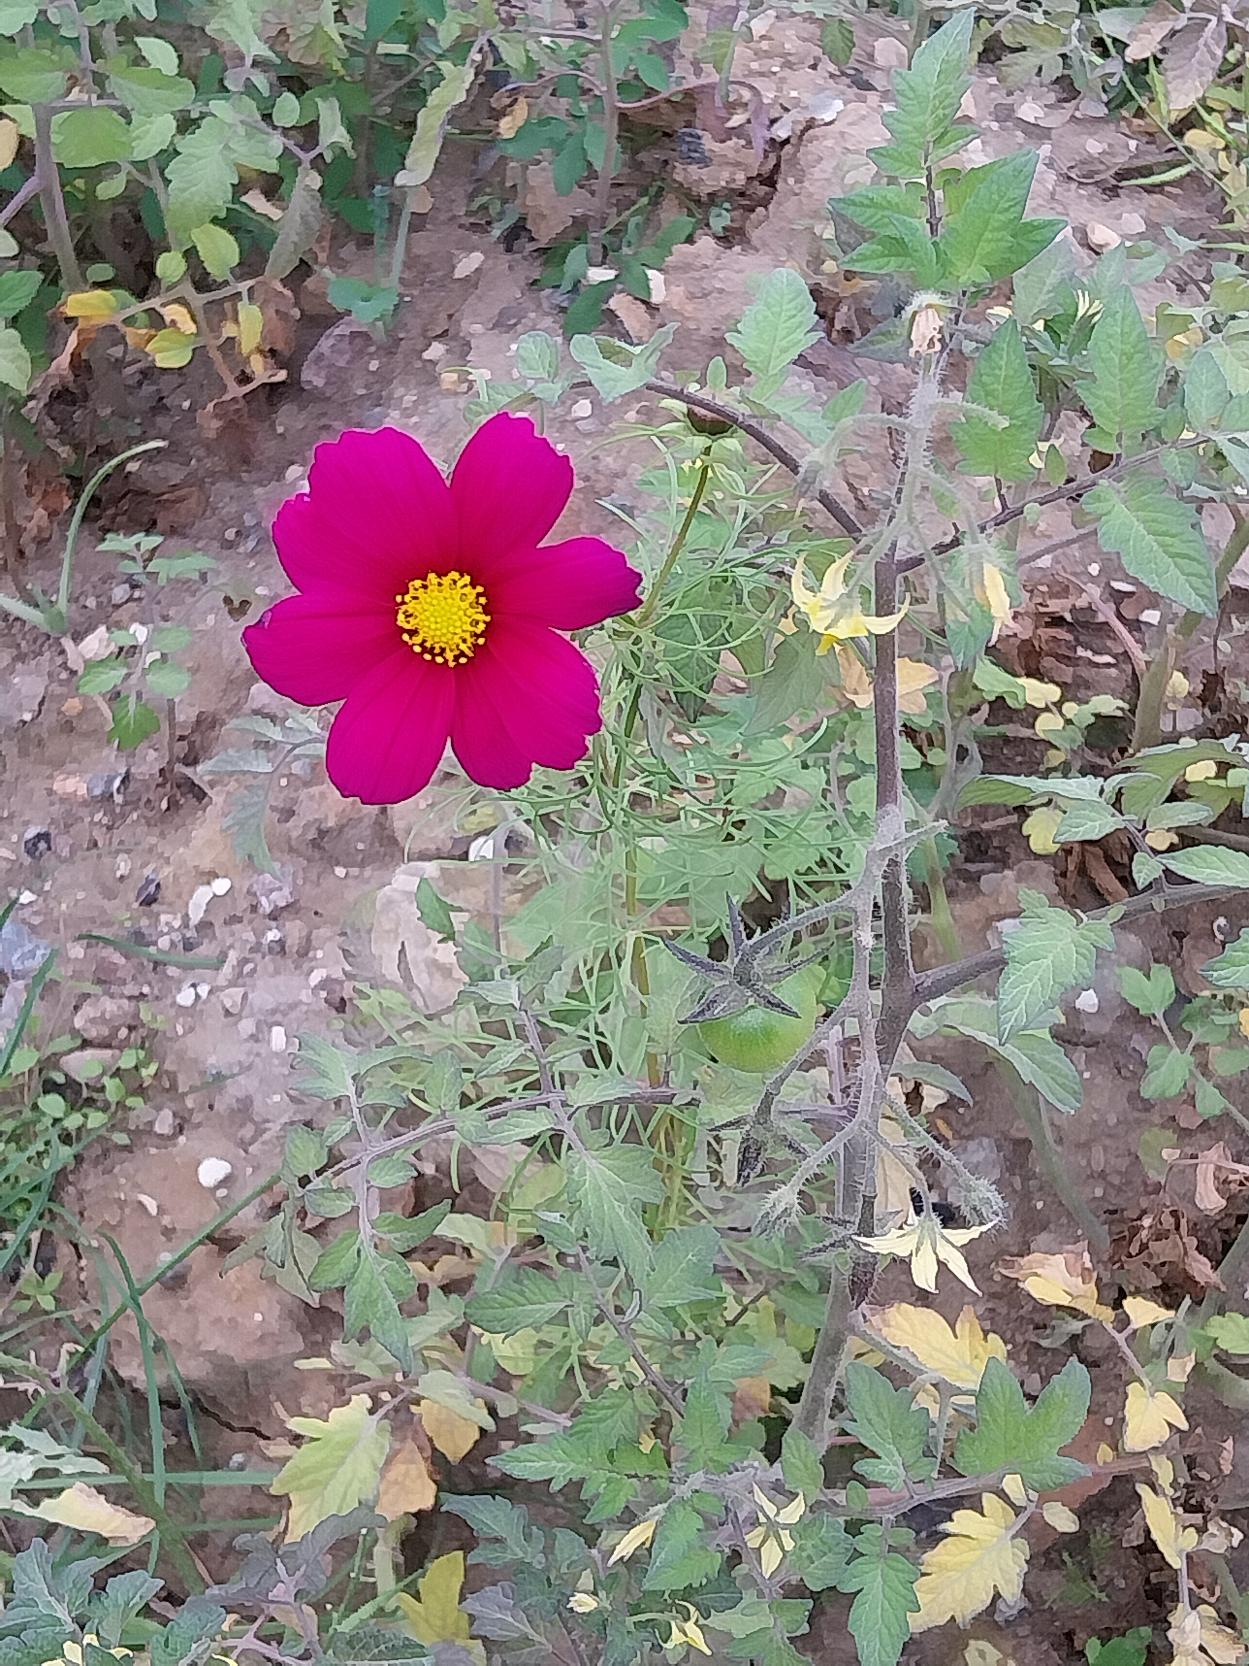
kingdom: Plantae
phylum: Tracheophyta
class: Magnoliopsida
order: Asterales
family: Asteraceae
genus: Cosmos
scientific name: Cosmos bipinnatus
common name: Stolt kavaler
